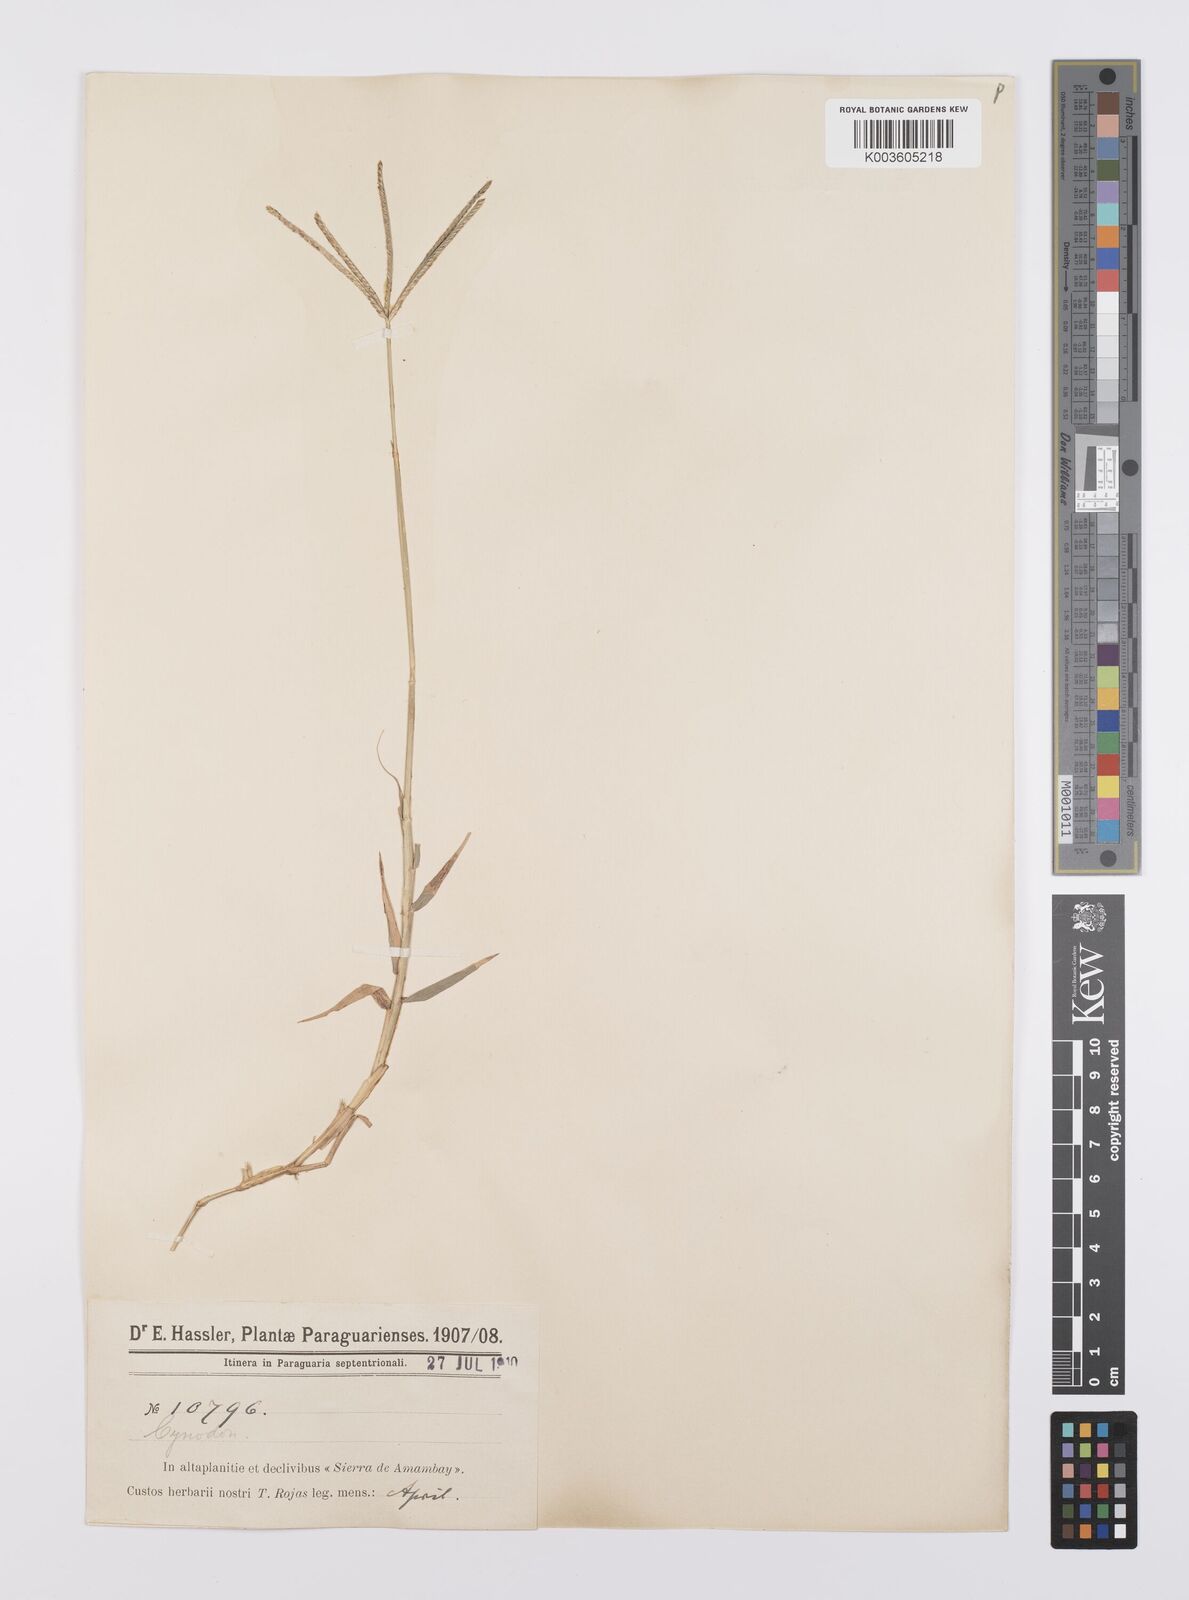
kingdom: Plantae
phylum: Tracheophyta
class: Liliopsida
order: Poales
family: Poaceae
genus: Cynodon
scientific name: Cynodon dactylon
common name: Bermuda grass
